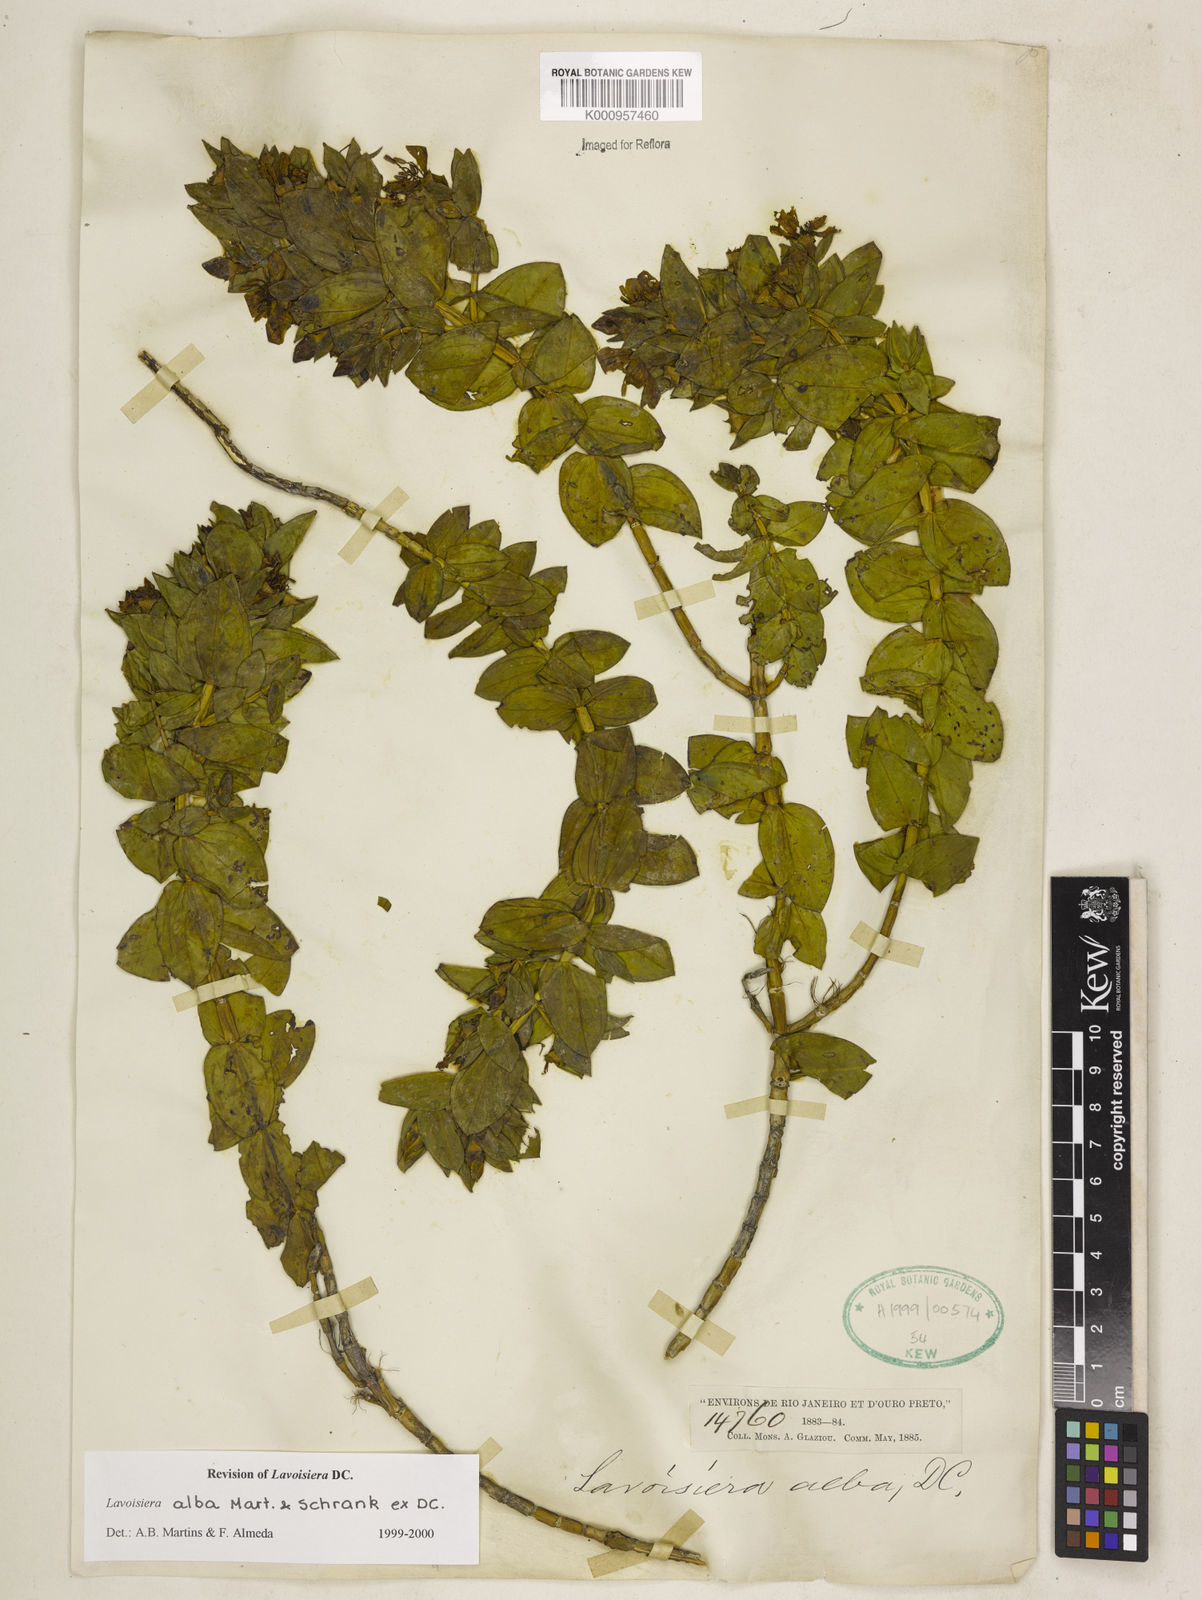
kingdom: Plantae
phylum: Tracheophyta
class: Magnoliopsida
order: Myrtales
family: Melastomataceae
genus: Microlicia
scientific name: Microlicia alba
